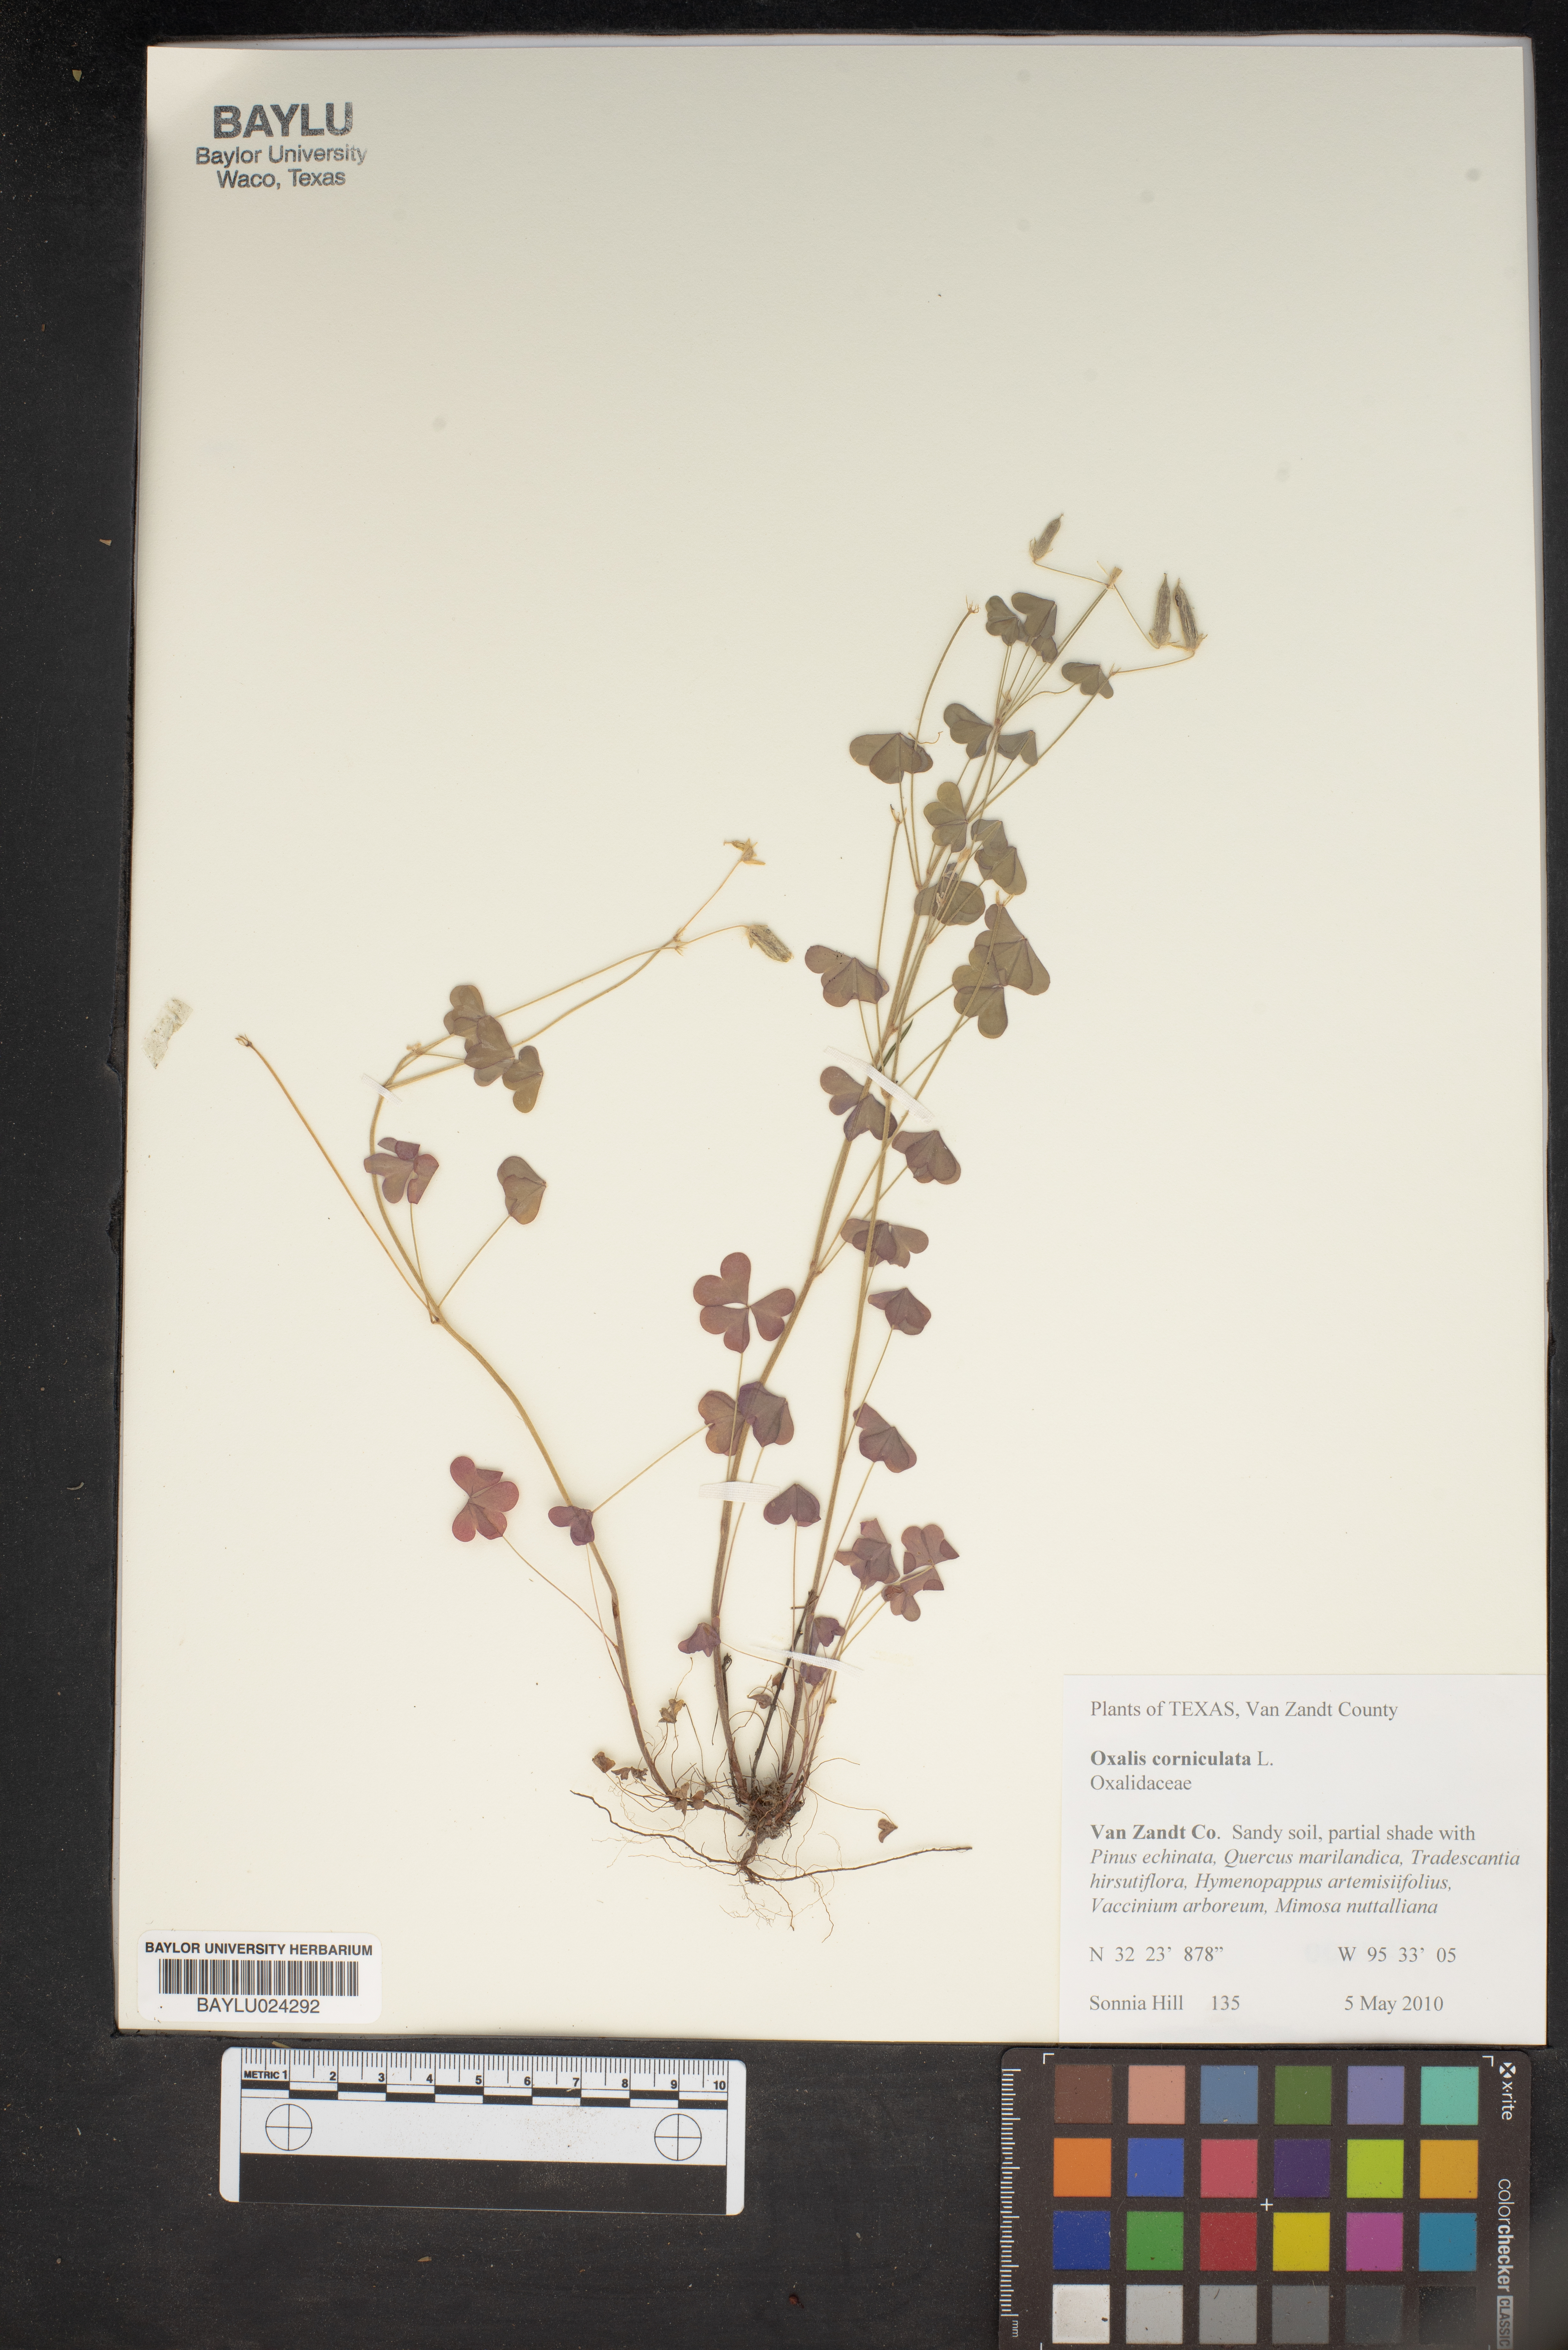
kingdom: Plantae
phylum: Tracheophyta
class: Magnoliopsida
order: Oxalidales
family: Oxalidaceae
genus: Oxalis
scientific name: Oxalis corniculata
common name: Procumbent yellow-sorrel
